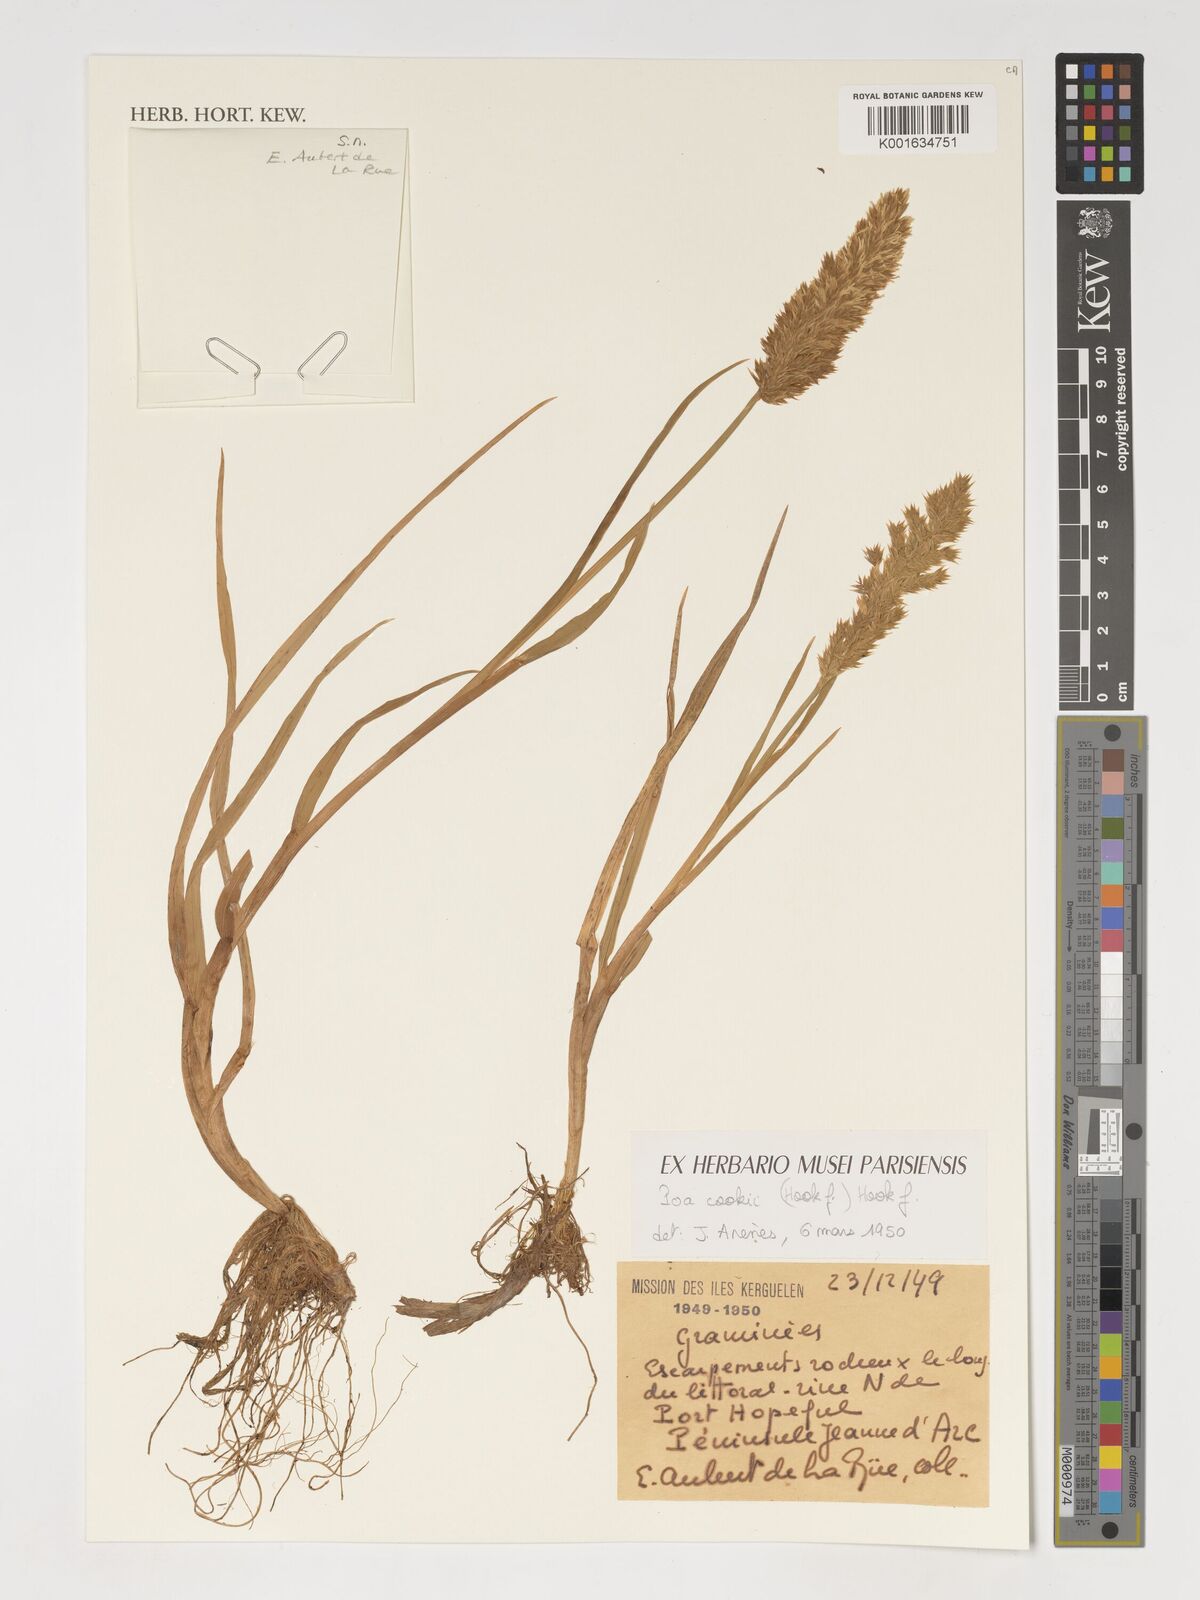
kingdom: Plantae
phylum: Tracheophyta
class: Liliopsida
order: Poales
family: Poaceae
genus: Poa
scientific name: Poa cookii
